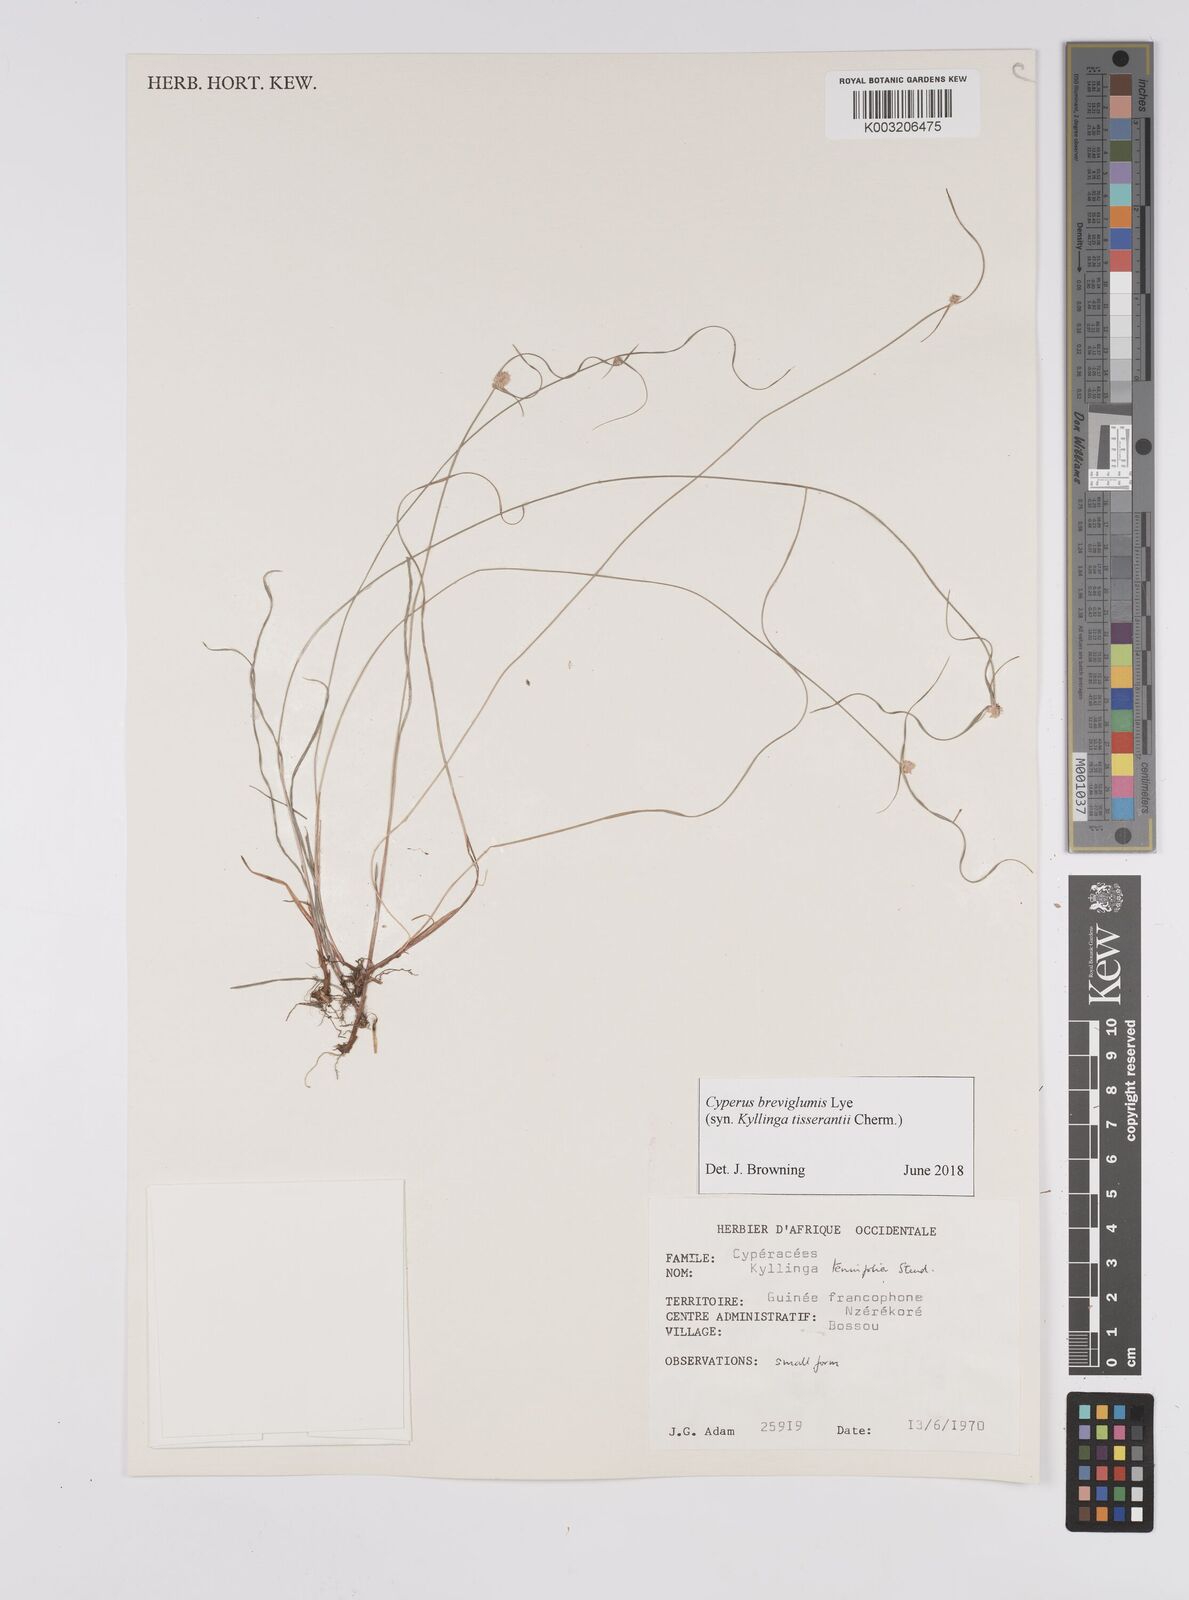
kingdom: Plantae
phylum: Tracheophyta
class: Liliopsida
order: Poales
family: Cyperaceae
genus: Cyperus
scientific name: Cyperus
